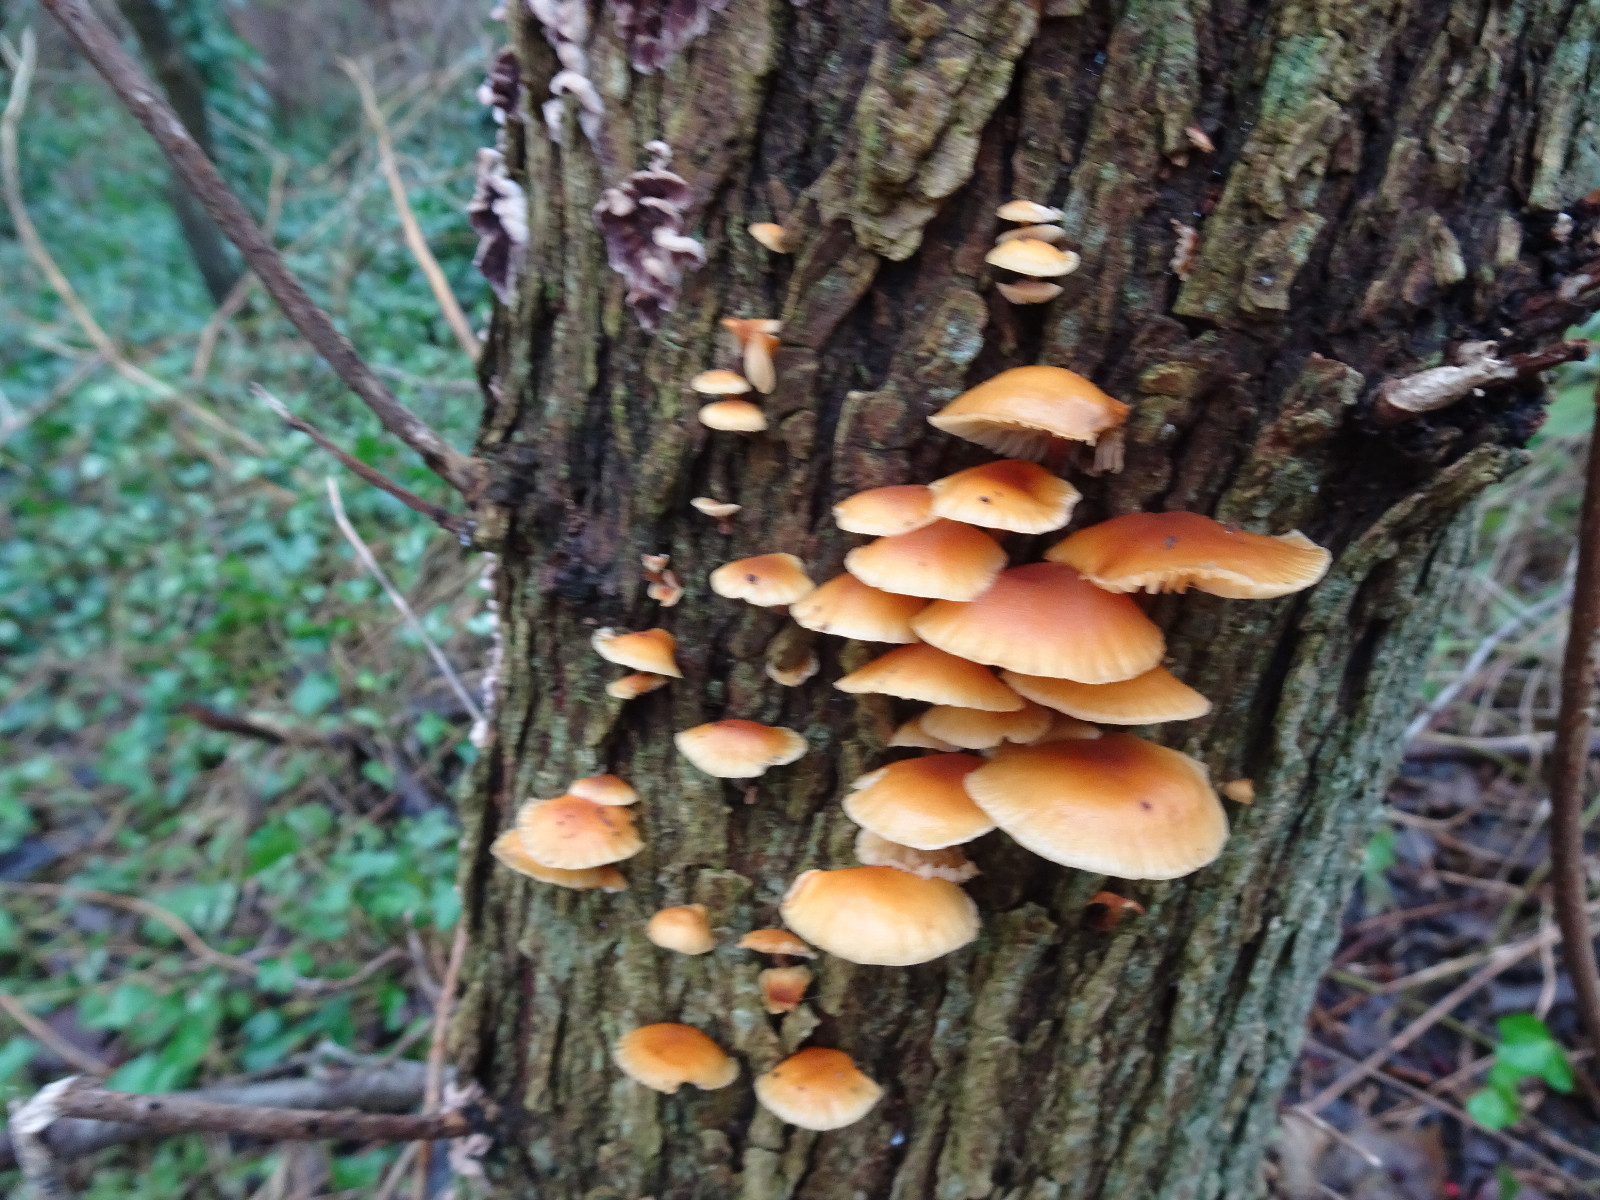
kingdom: Fungi
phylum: Basidiomycota
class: Agaricomycetes
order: Agaricales
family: Physalacriaceae
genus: Flammulina
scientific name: Flammulina
